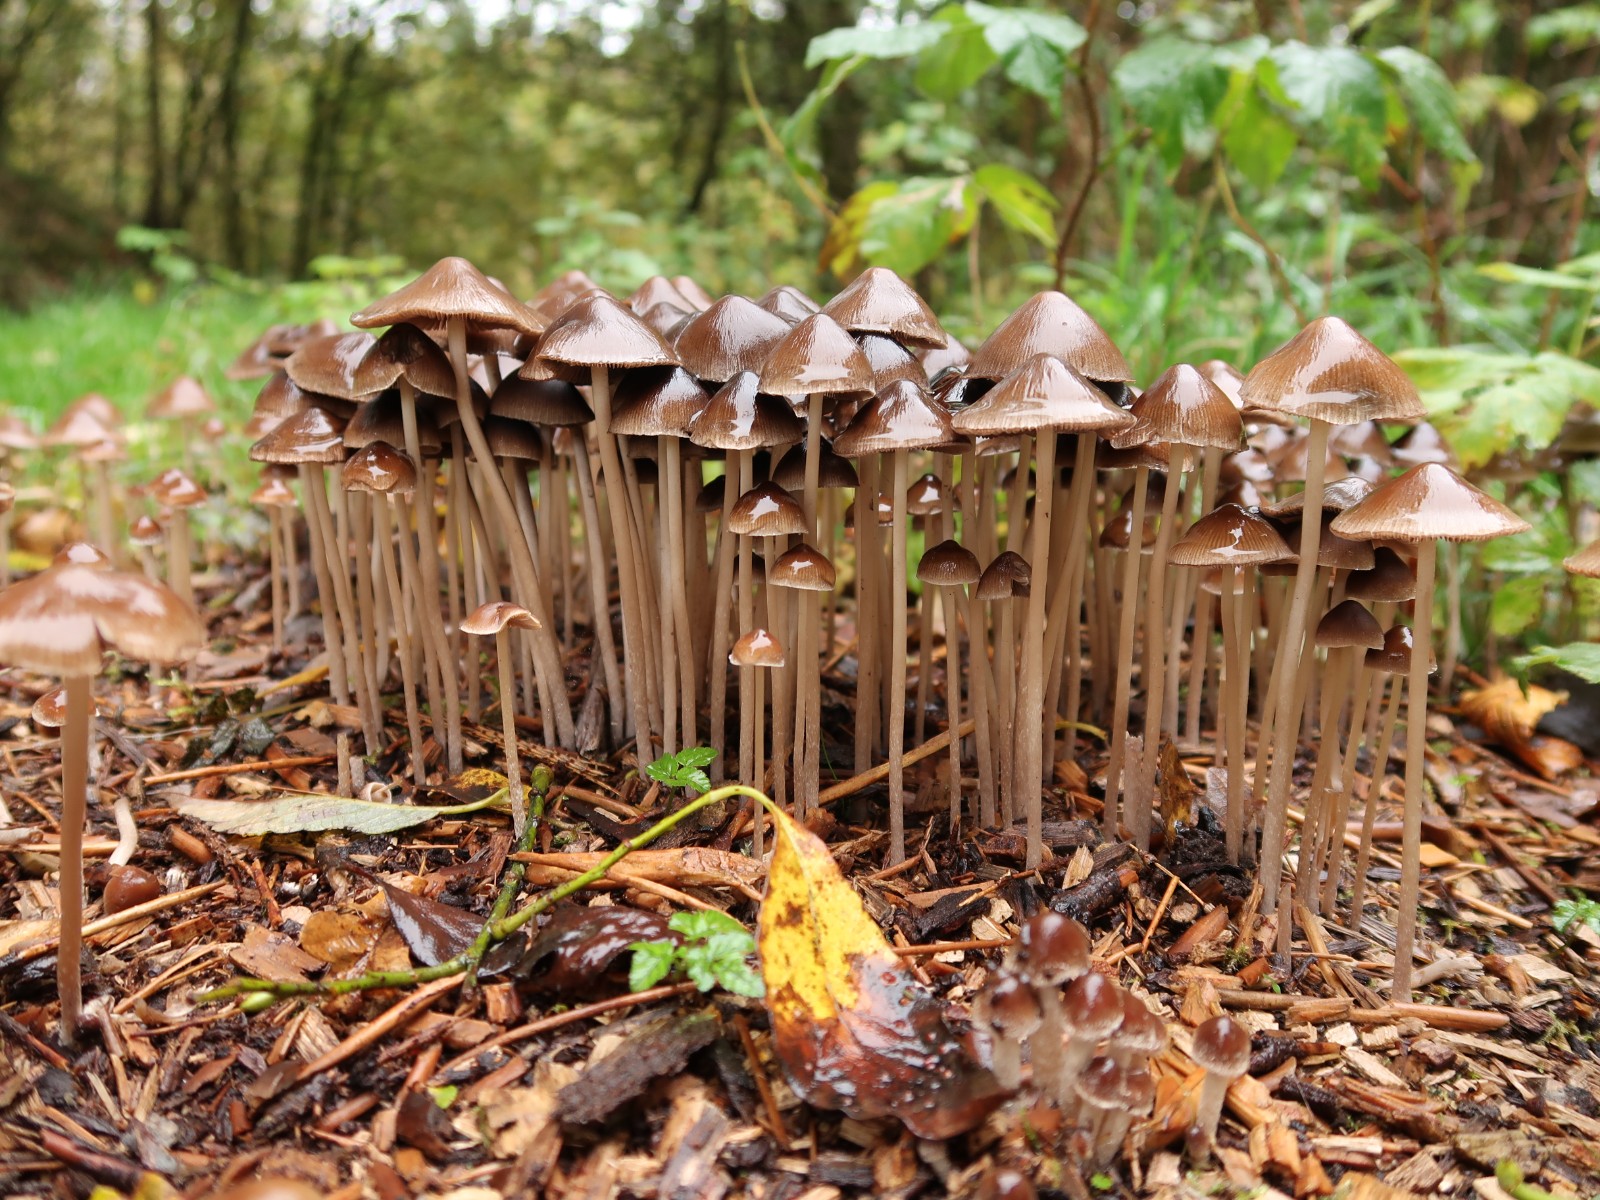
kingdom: Fungi
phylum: Basidiomycota
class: Agaricomycetes
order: Agaricales
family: Psathyrellaceae
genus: Parasola
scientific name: Parasola conopilea
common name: kegle-hjulhat
